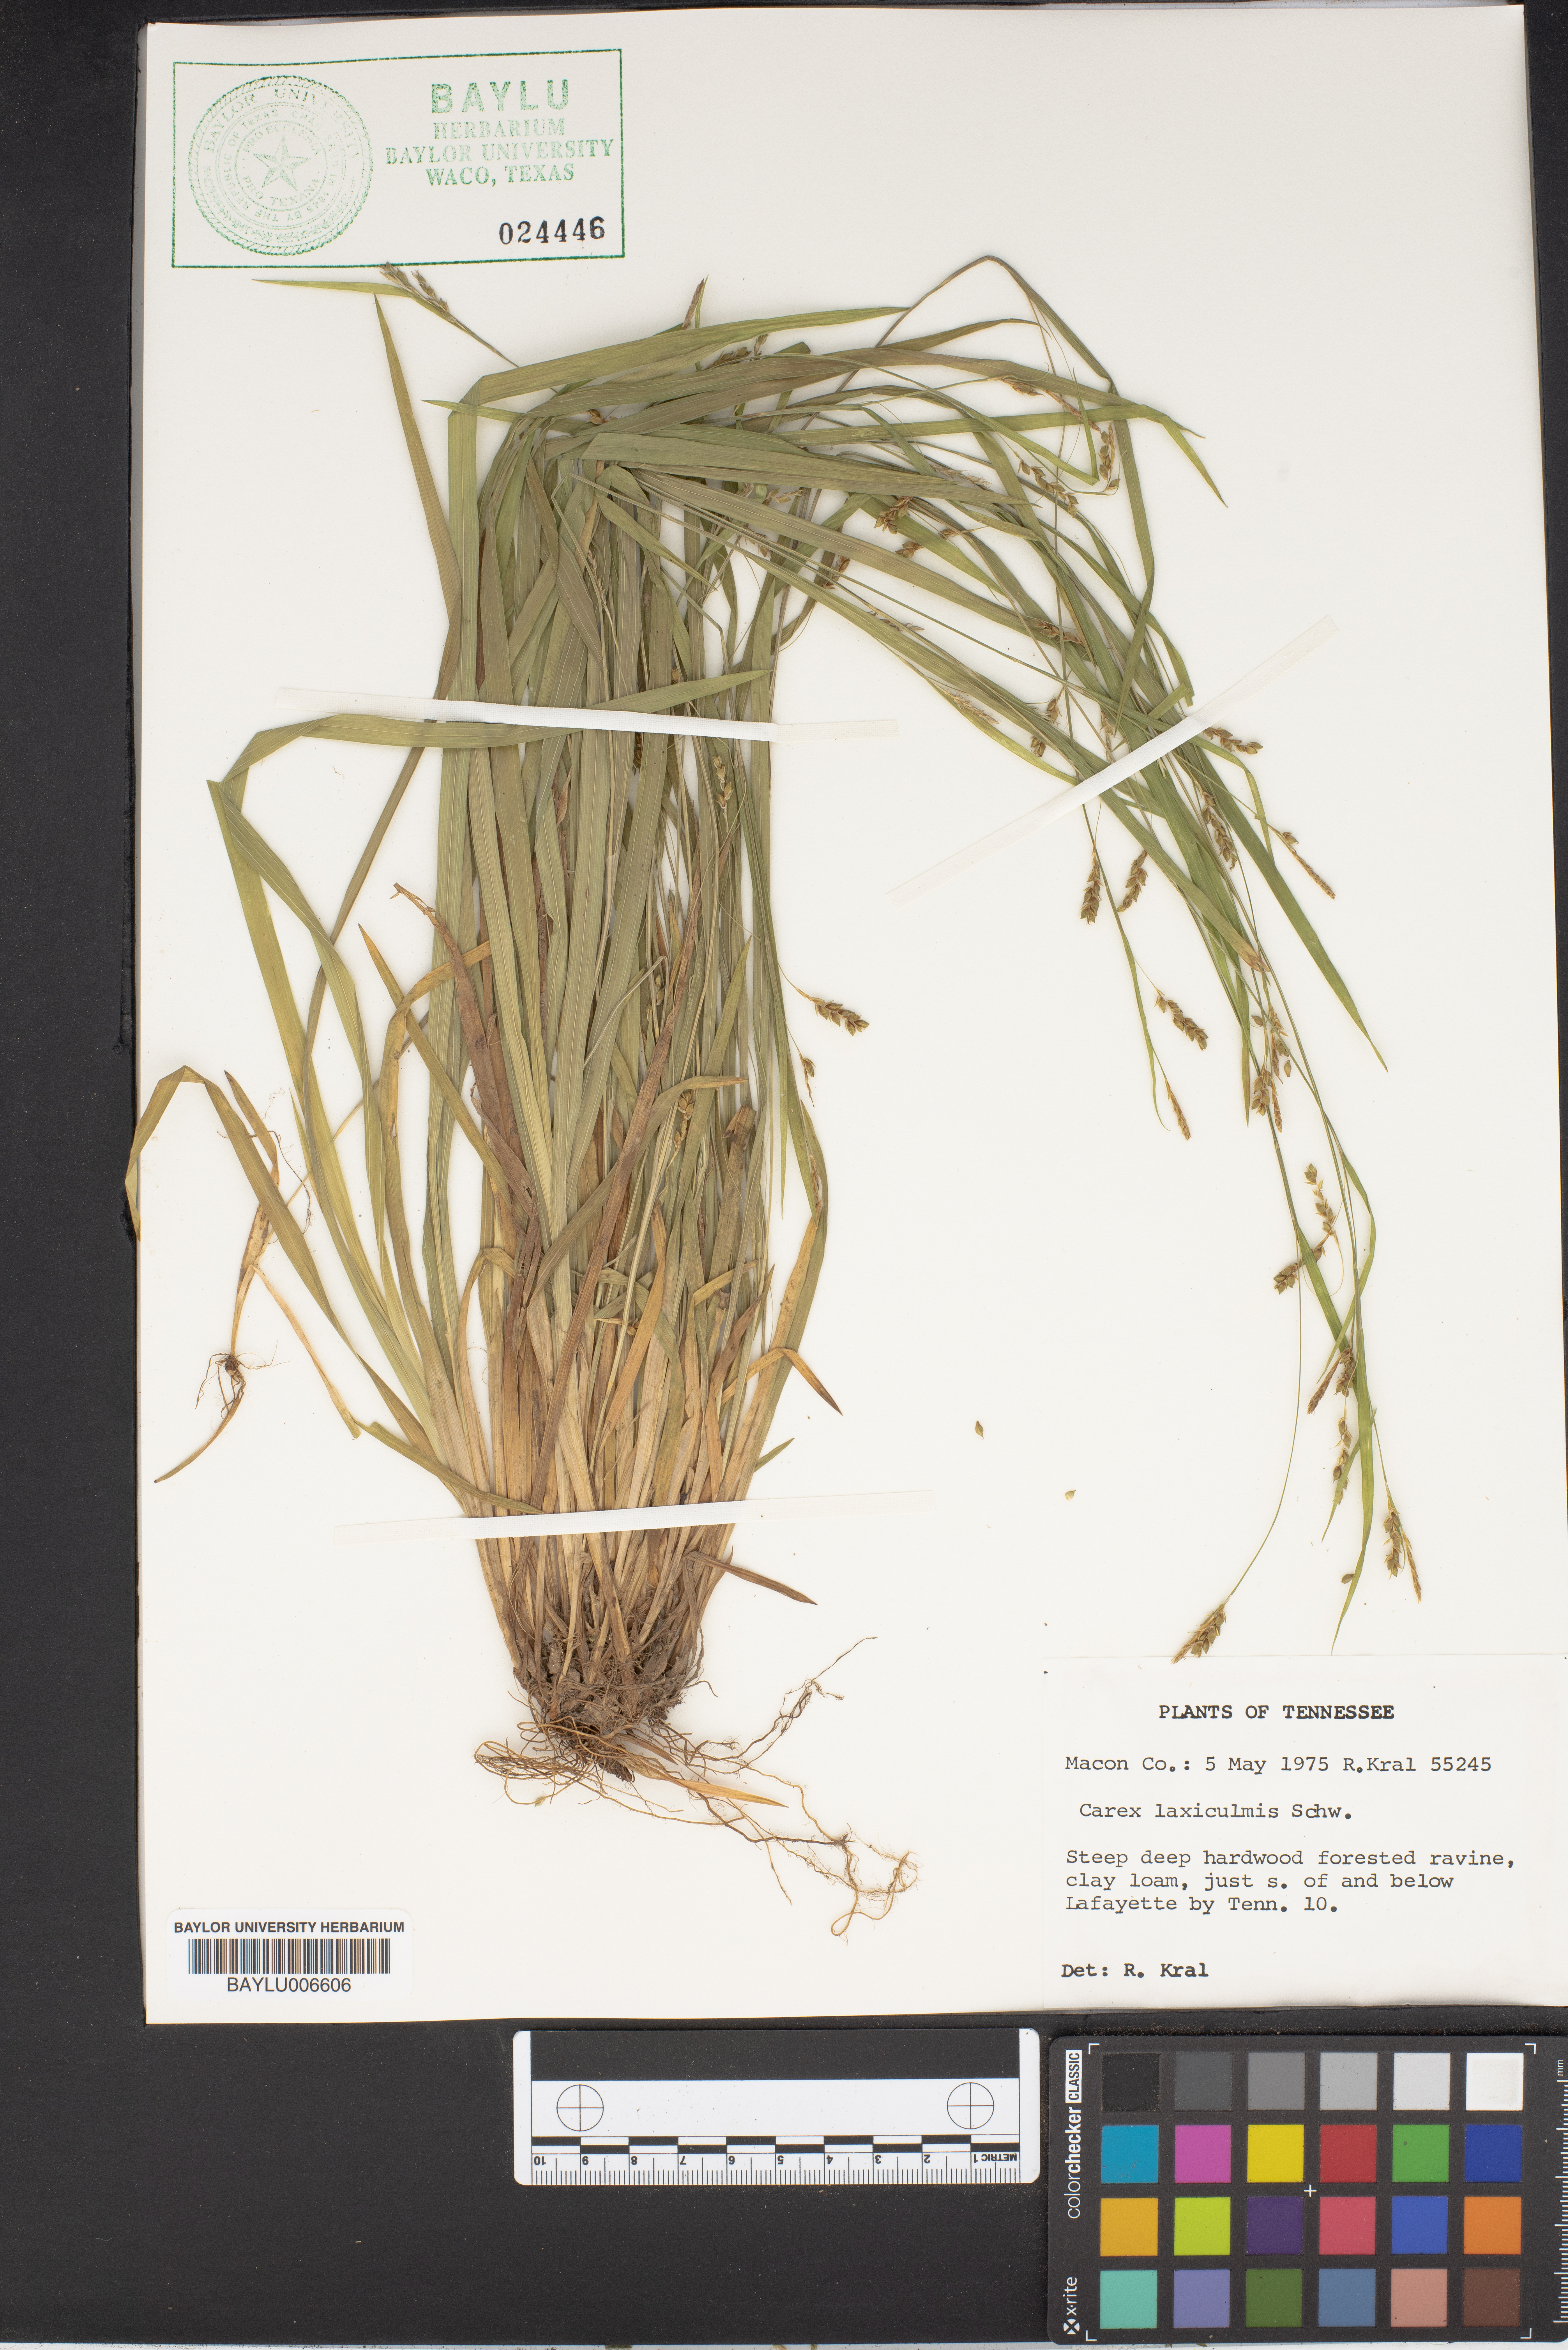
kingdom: Plantae
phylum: Tracheophyta
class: Liliopsida
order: Poales
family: Cyperaceae
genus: Carex
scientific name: Carex laxiculmis
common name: Spreading sedge
